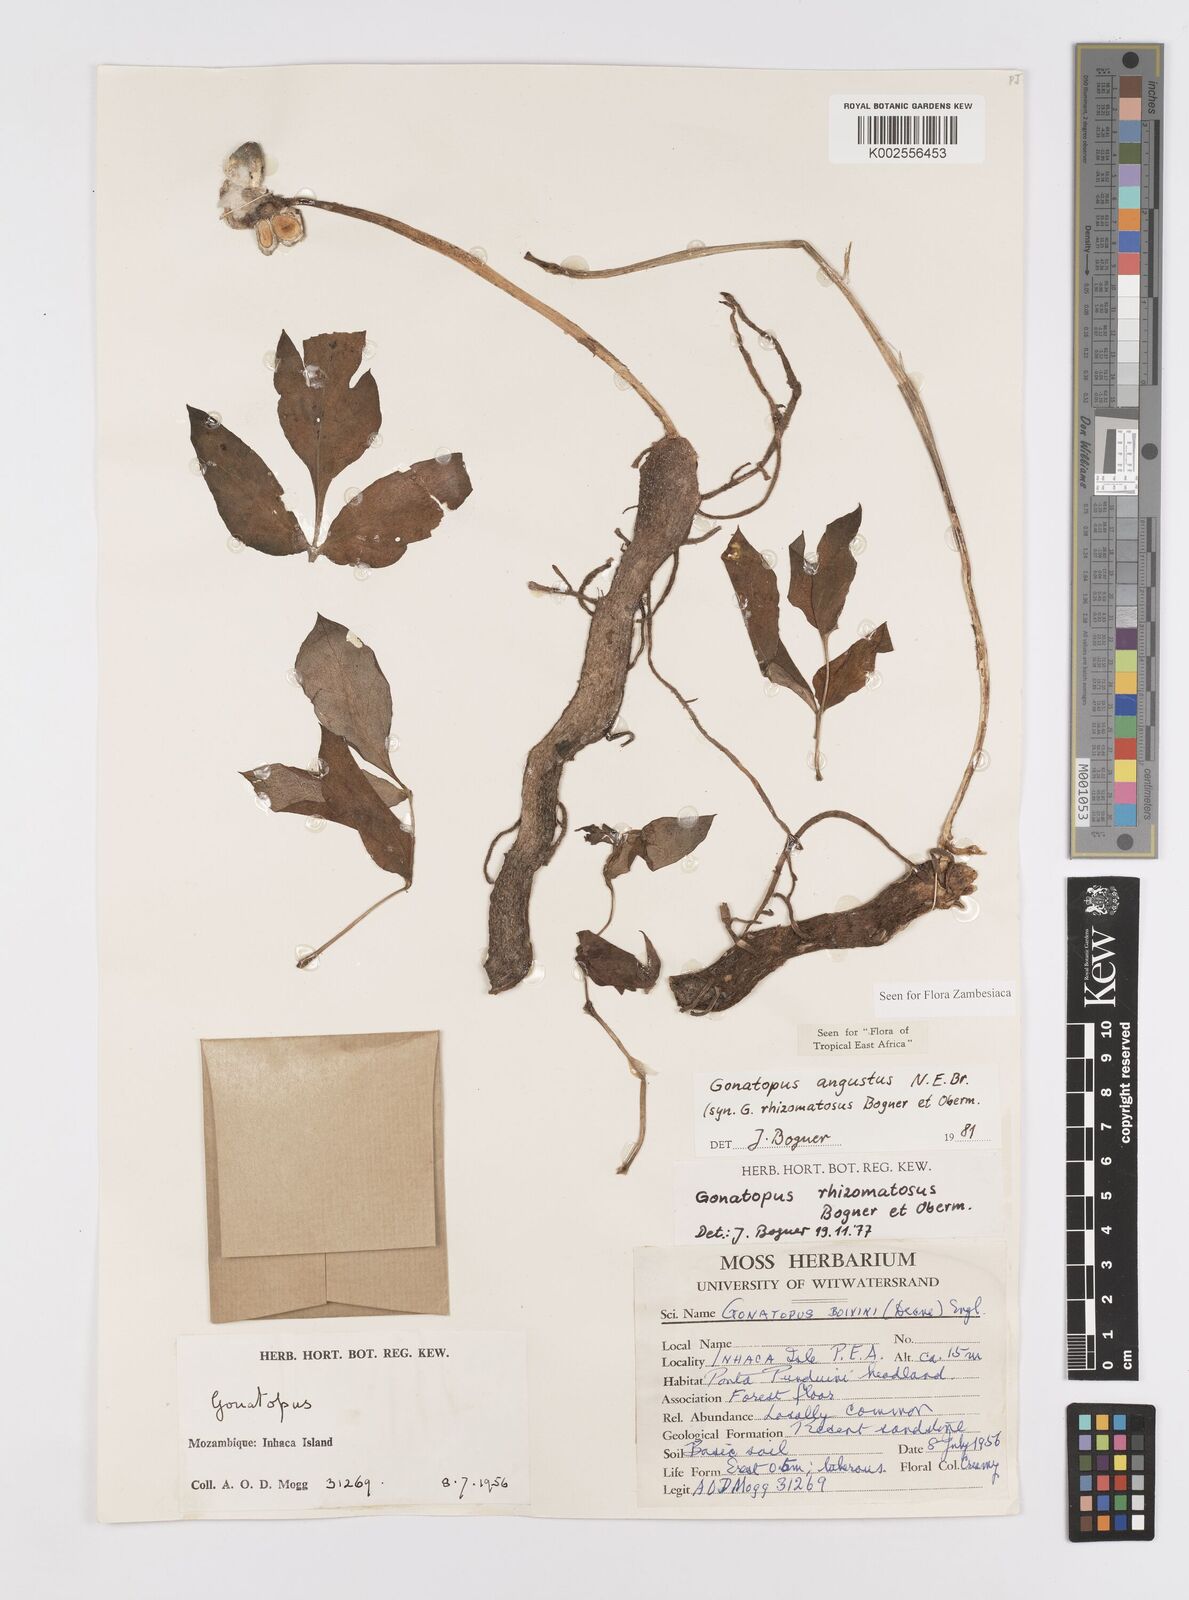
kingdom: Plantae
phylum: Tracheophyta
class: Liliopsida
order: Alismatales
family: Araceae
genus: Gonatopus
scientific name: Gonatopus angustus
